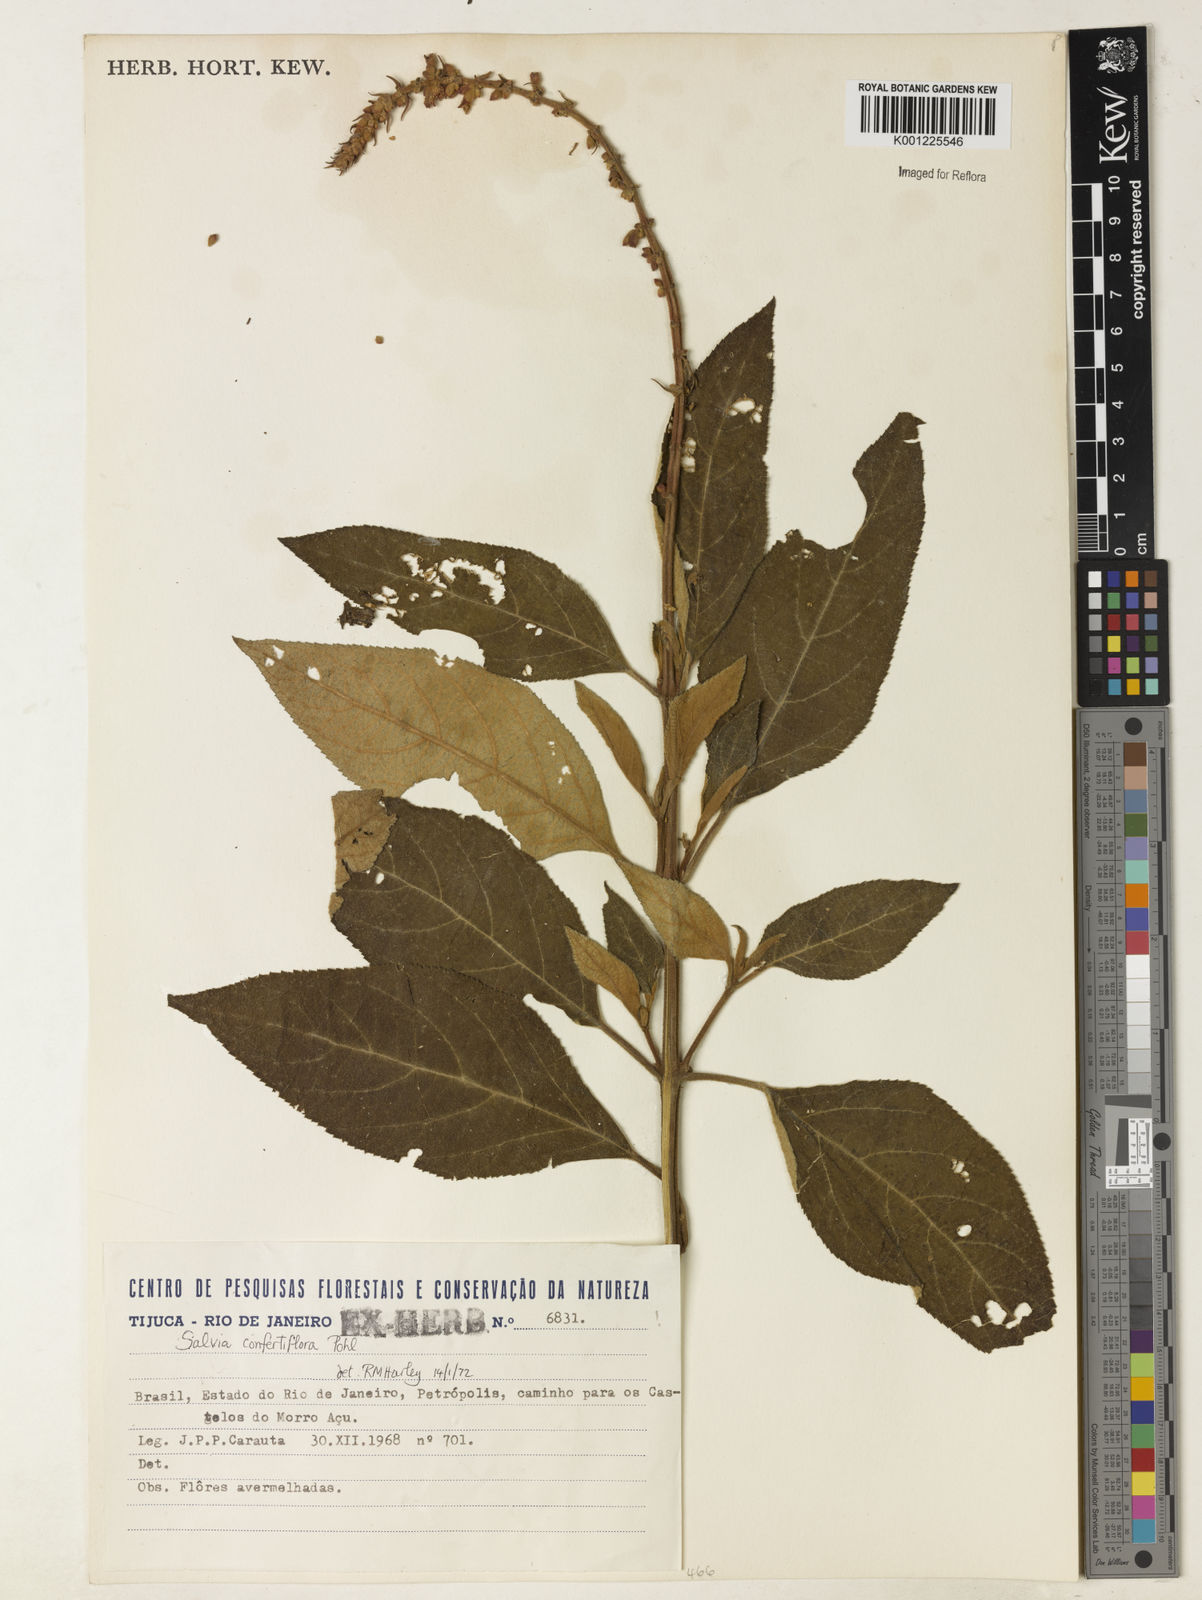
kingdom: Plantae
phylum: Tracheophyta
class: Magnoliopsida
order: Lamiales
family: Lamiaceae
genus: Salvia
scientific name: Salvia confertiflora
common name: Sabra-spike sage
